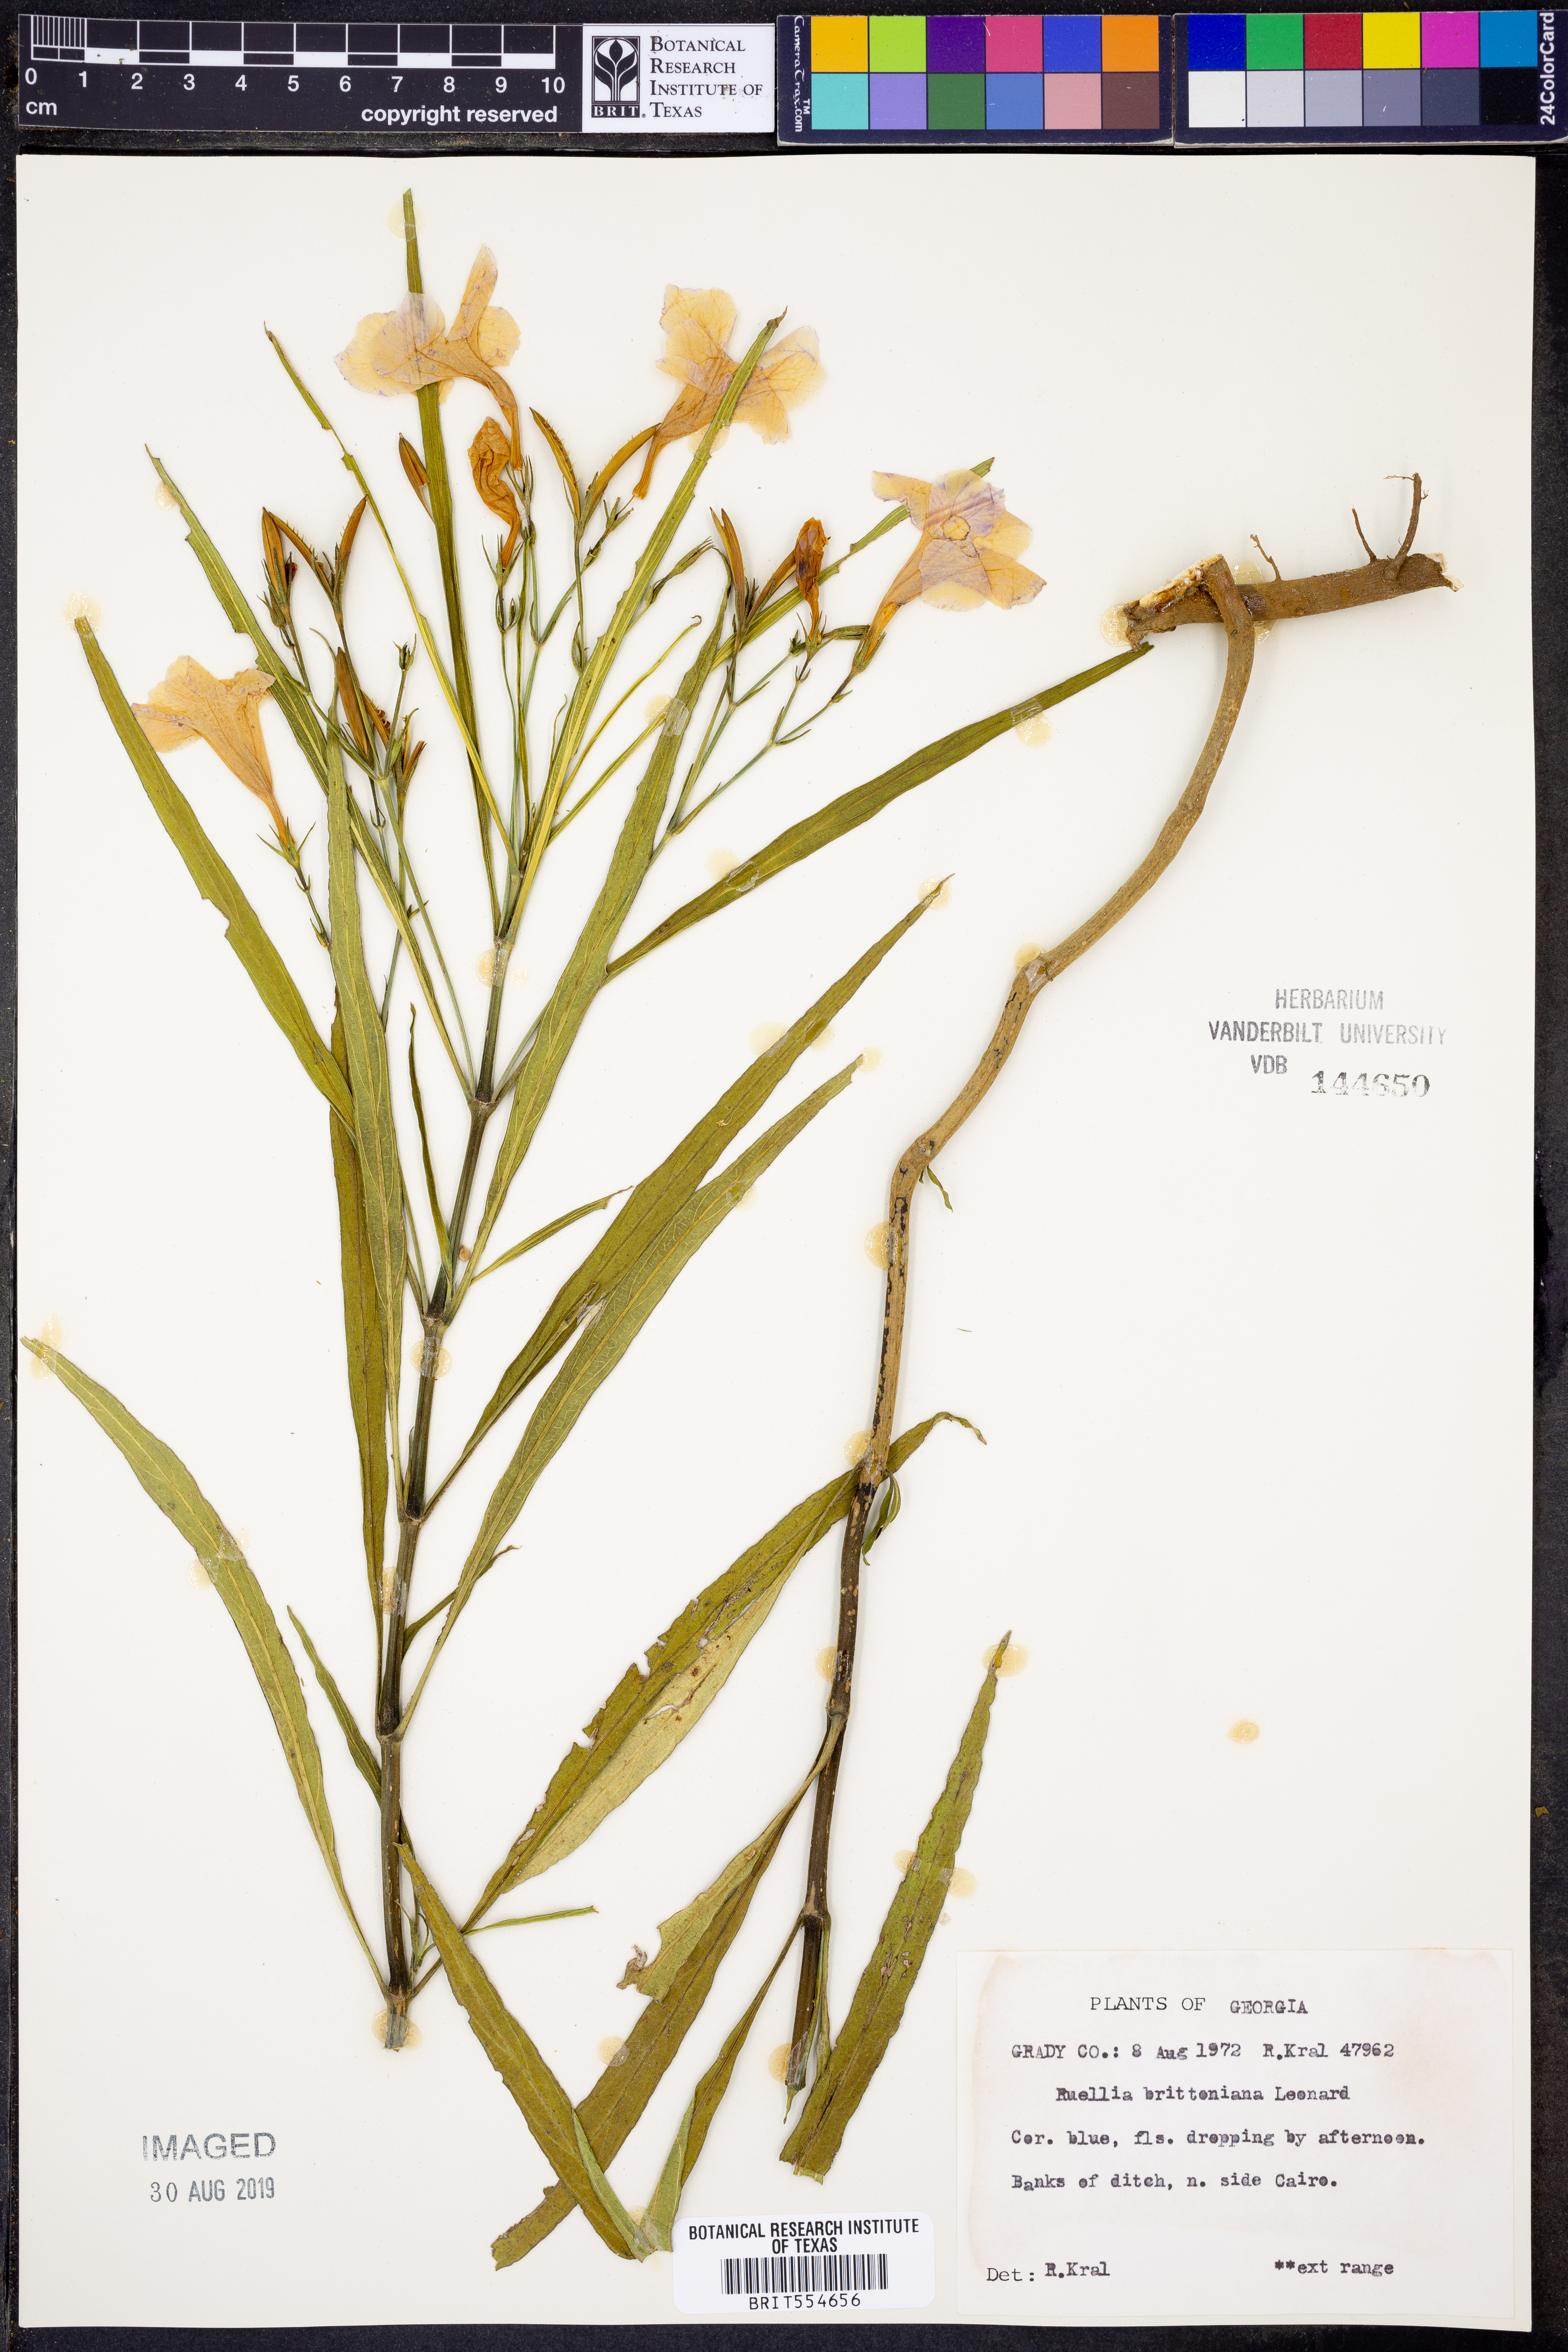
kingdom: Plantae
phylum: Tracheophyta
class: Magnoliopsida
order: Lamiales
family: Acanthaceae
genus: Ruellia
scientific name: Ruellia simplex
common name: Softseed wild petunia
